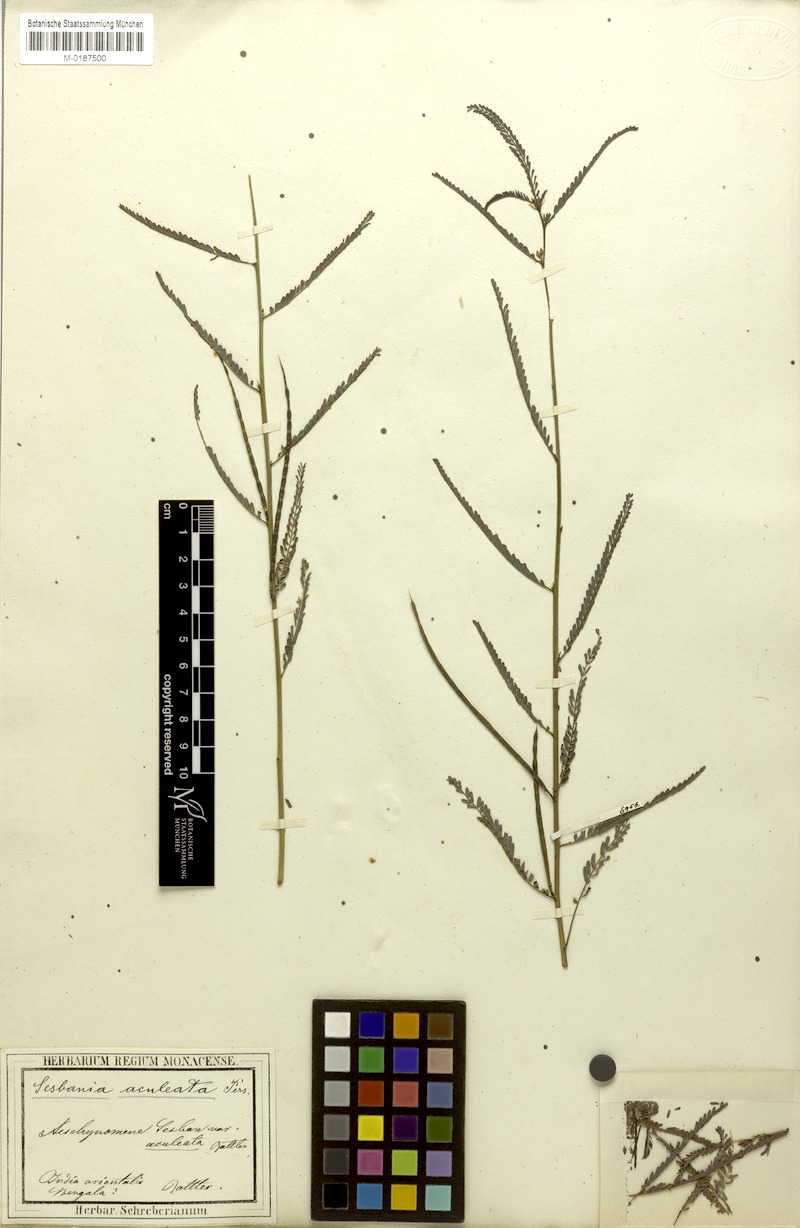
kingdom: Plantae
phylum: Tracheophyta
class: Magnoliopsida
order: Fabales
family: Fabaceae
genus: Sesbania
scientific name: Sesbania bispinosa
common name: Sesbania pea
